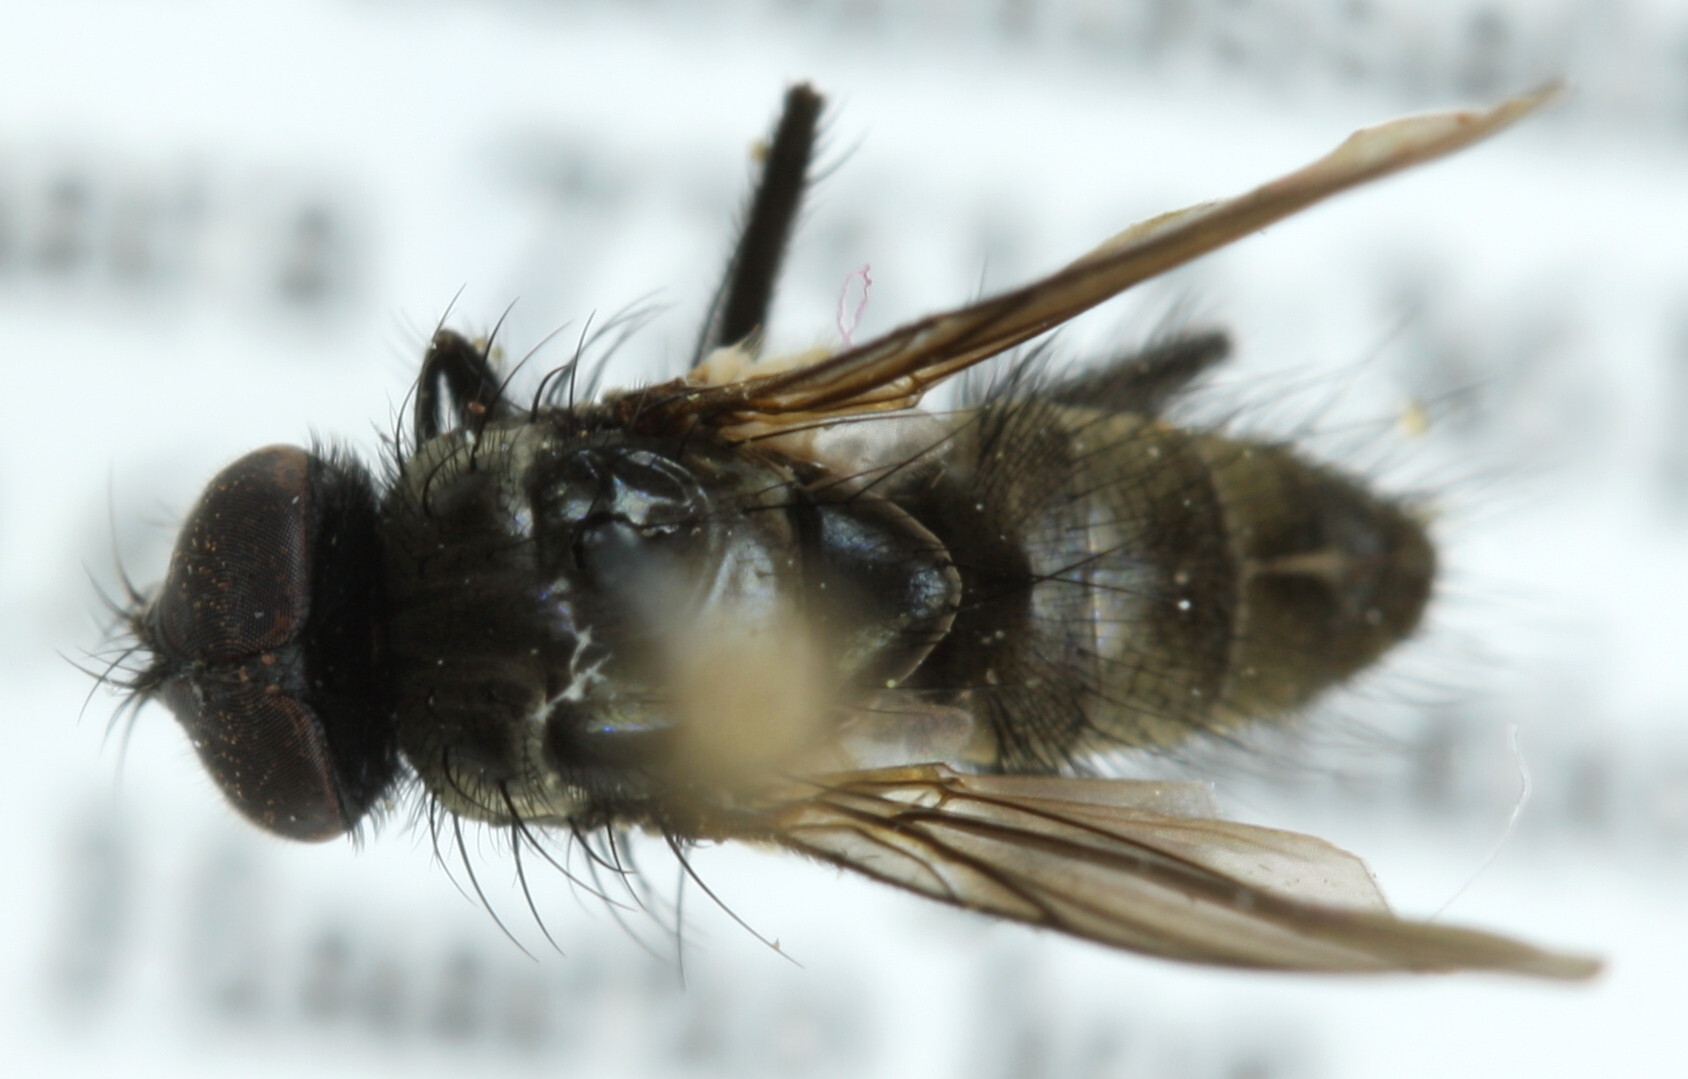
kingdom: Animalia
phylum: Arthropoda
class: Insecta
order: Diptera
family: Muscidae
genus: Thricops
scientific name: Thricops innocuus
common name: Muscoid fly
